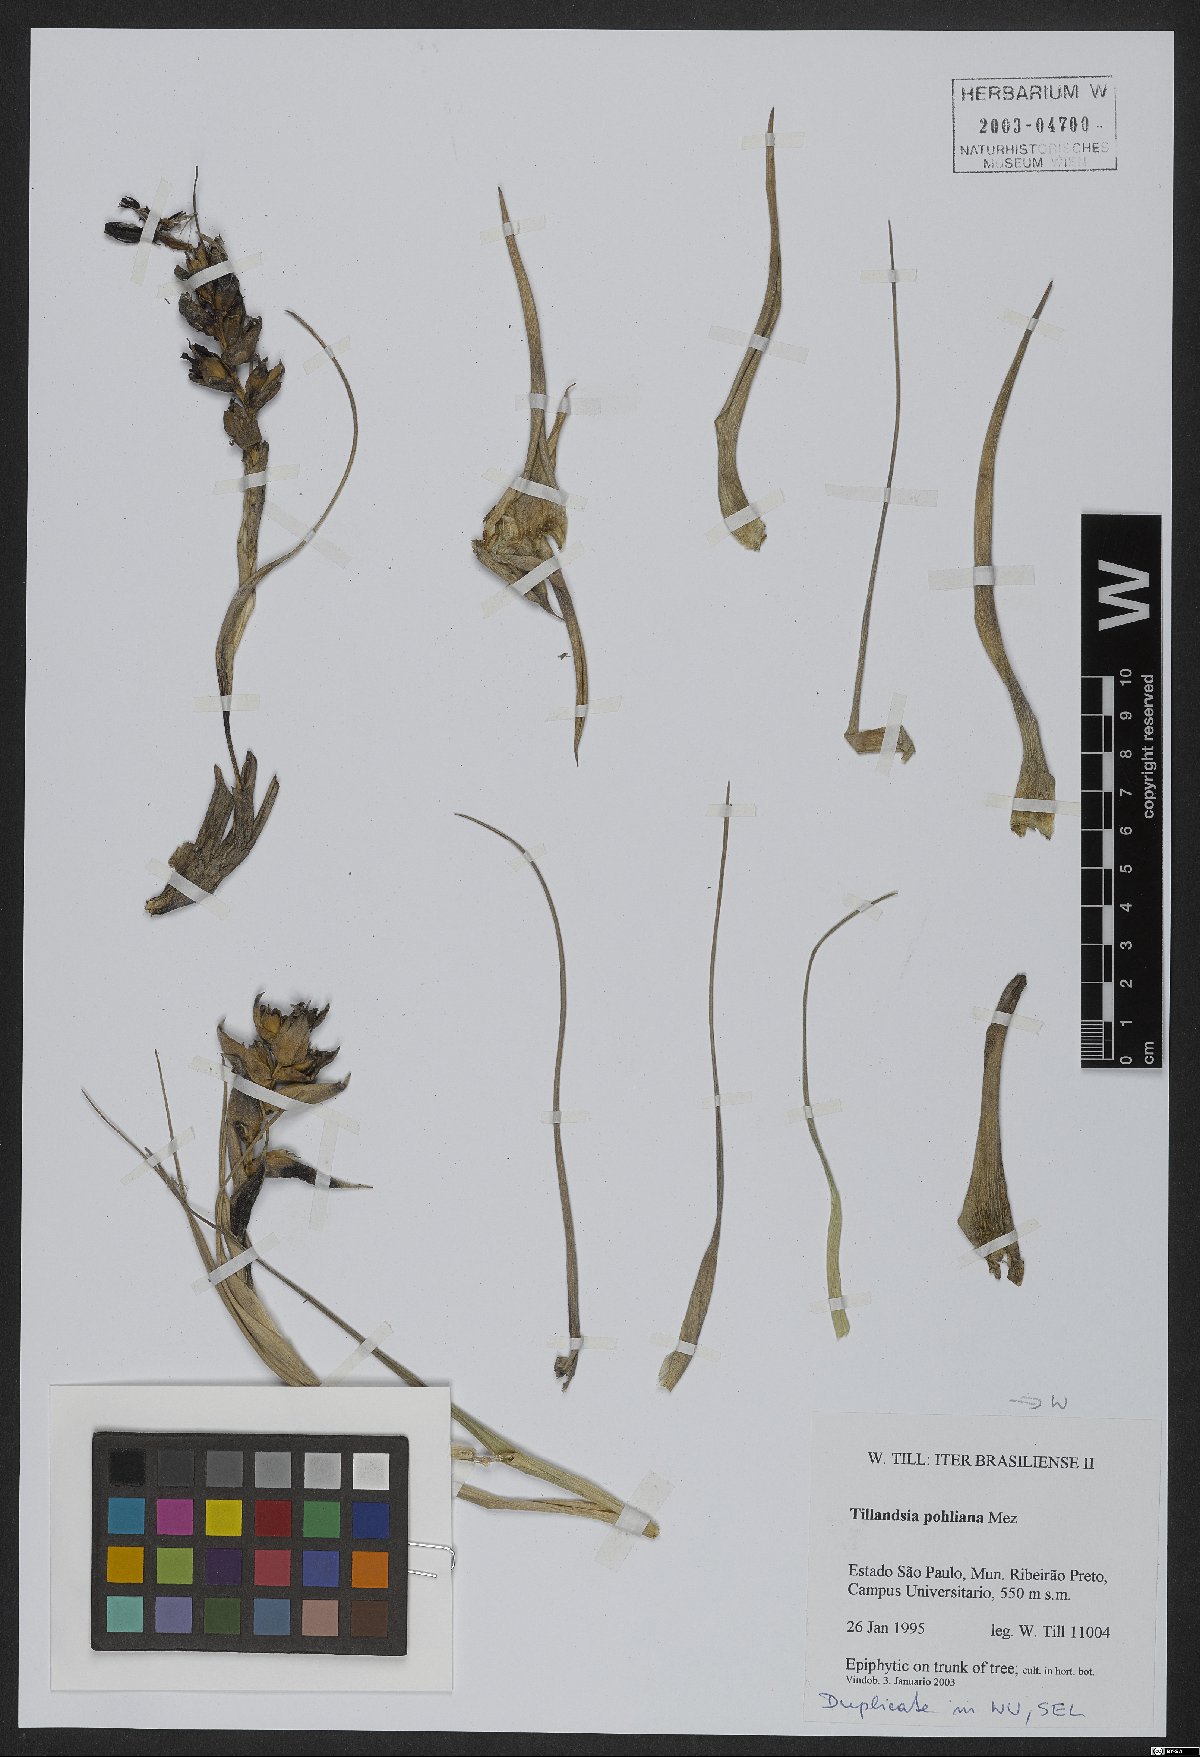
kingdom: Plantae
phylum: Tracheophyta
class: Liliopsida
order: Poales
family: Bromeliaceae
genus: Tillandsia
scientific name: Tillandsia pohliana
